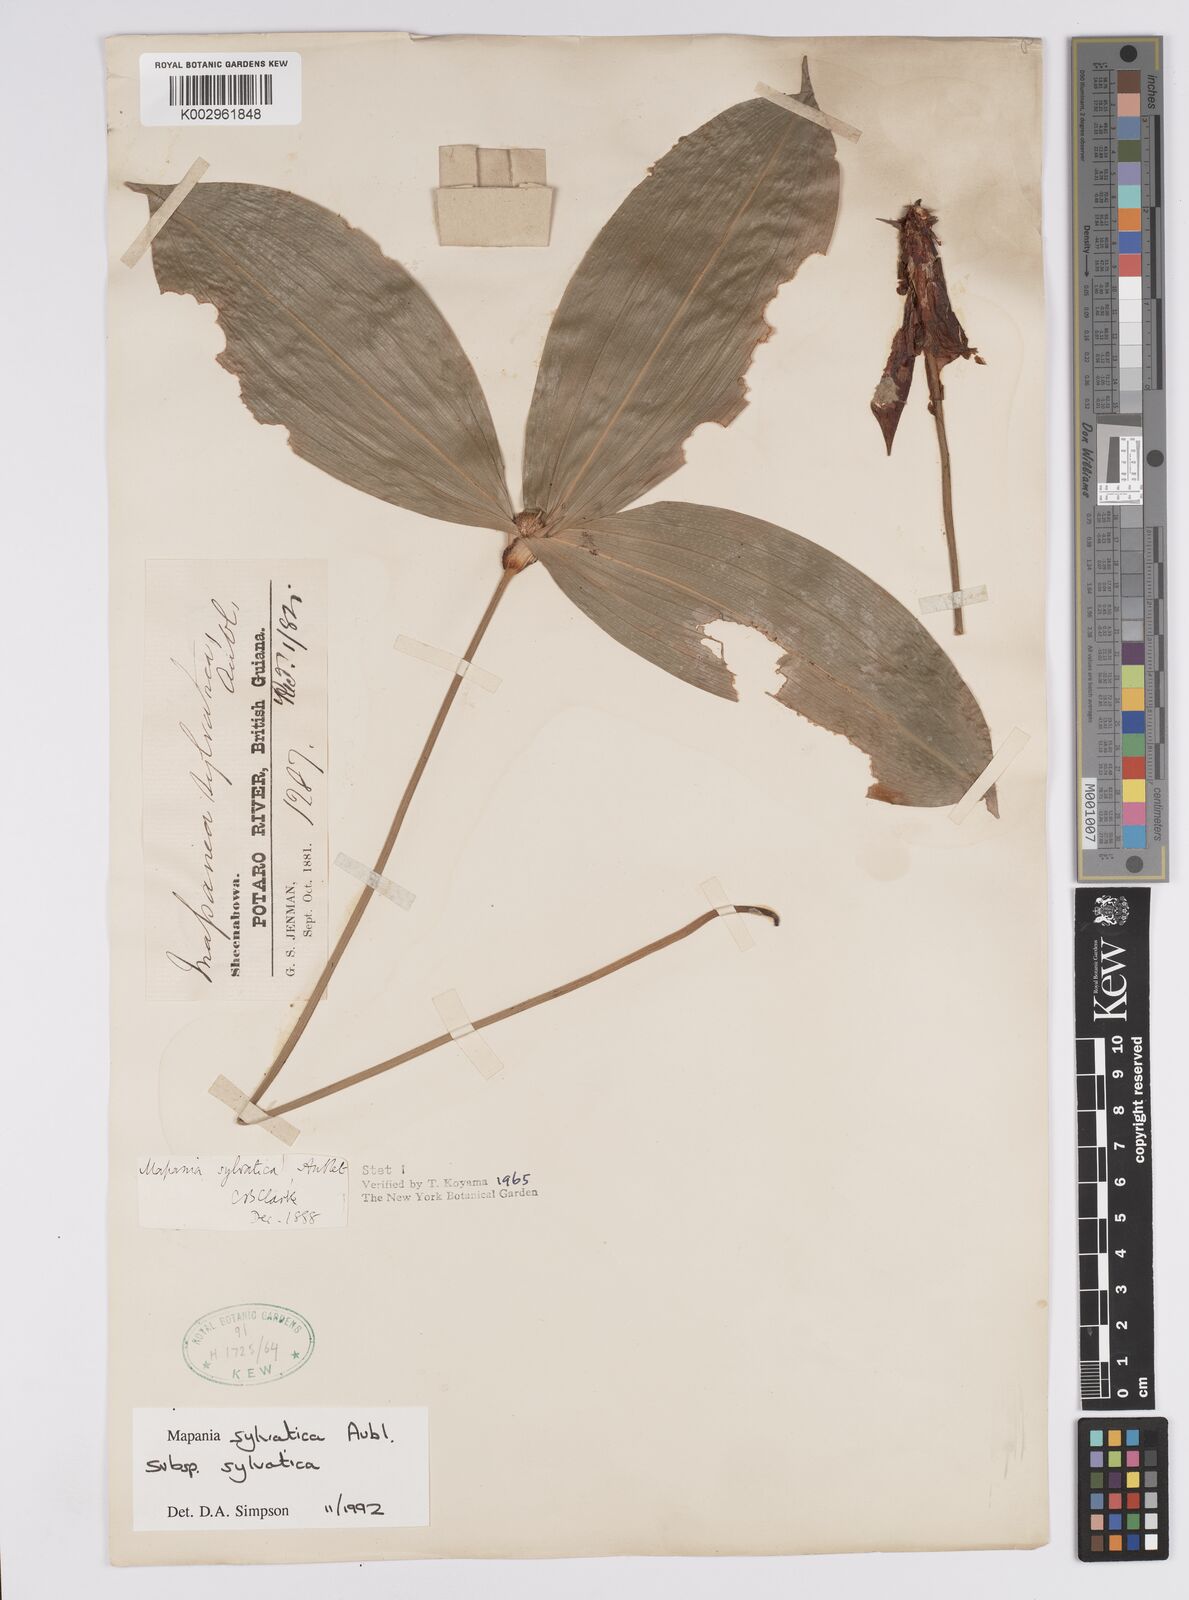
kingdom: Plantae
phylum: Tracheophyta
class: Liliopsida
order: Poales
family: Cyperaceae
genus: Mapania
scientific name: Mapania sylvatica
